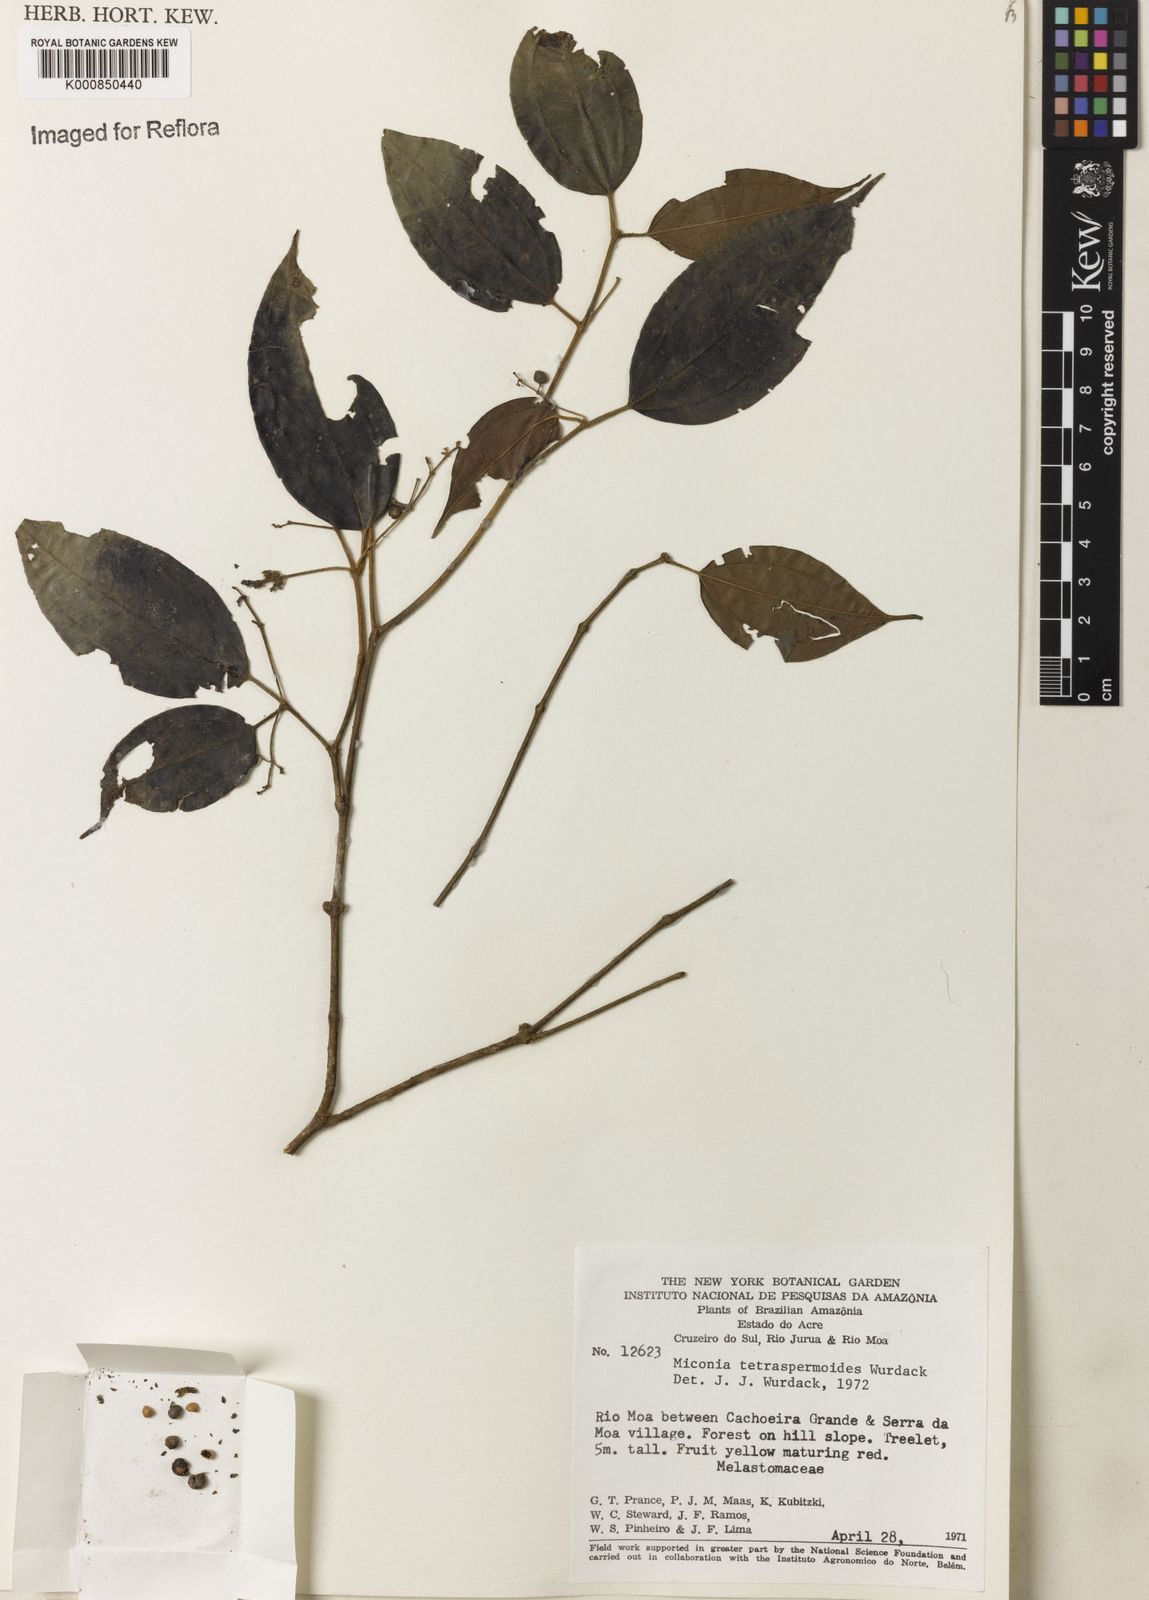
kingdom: Plantae
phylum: Tracheophyta
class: Magnoliopsida
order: Myrtales
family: Melastomataceae
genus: Miconia
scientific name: Miconia tetraspermoides
